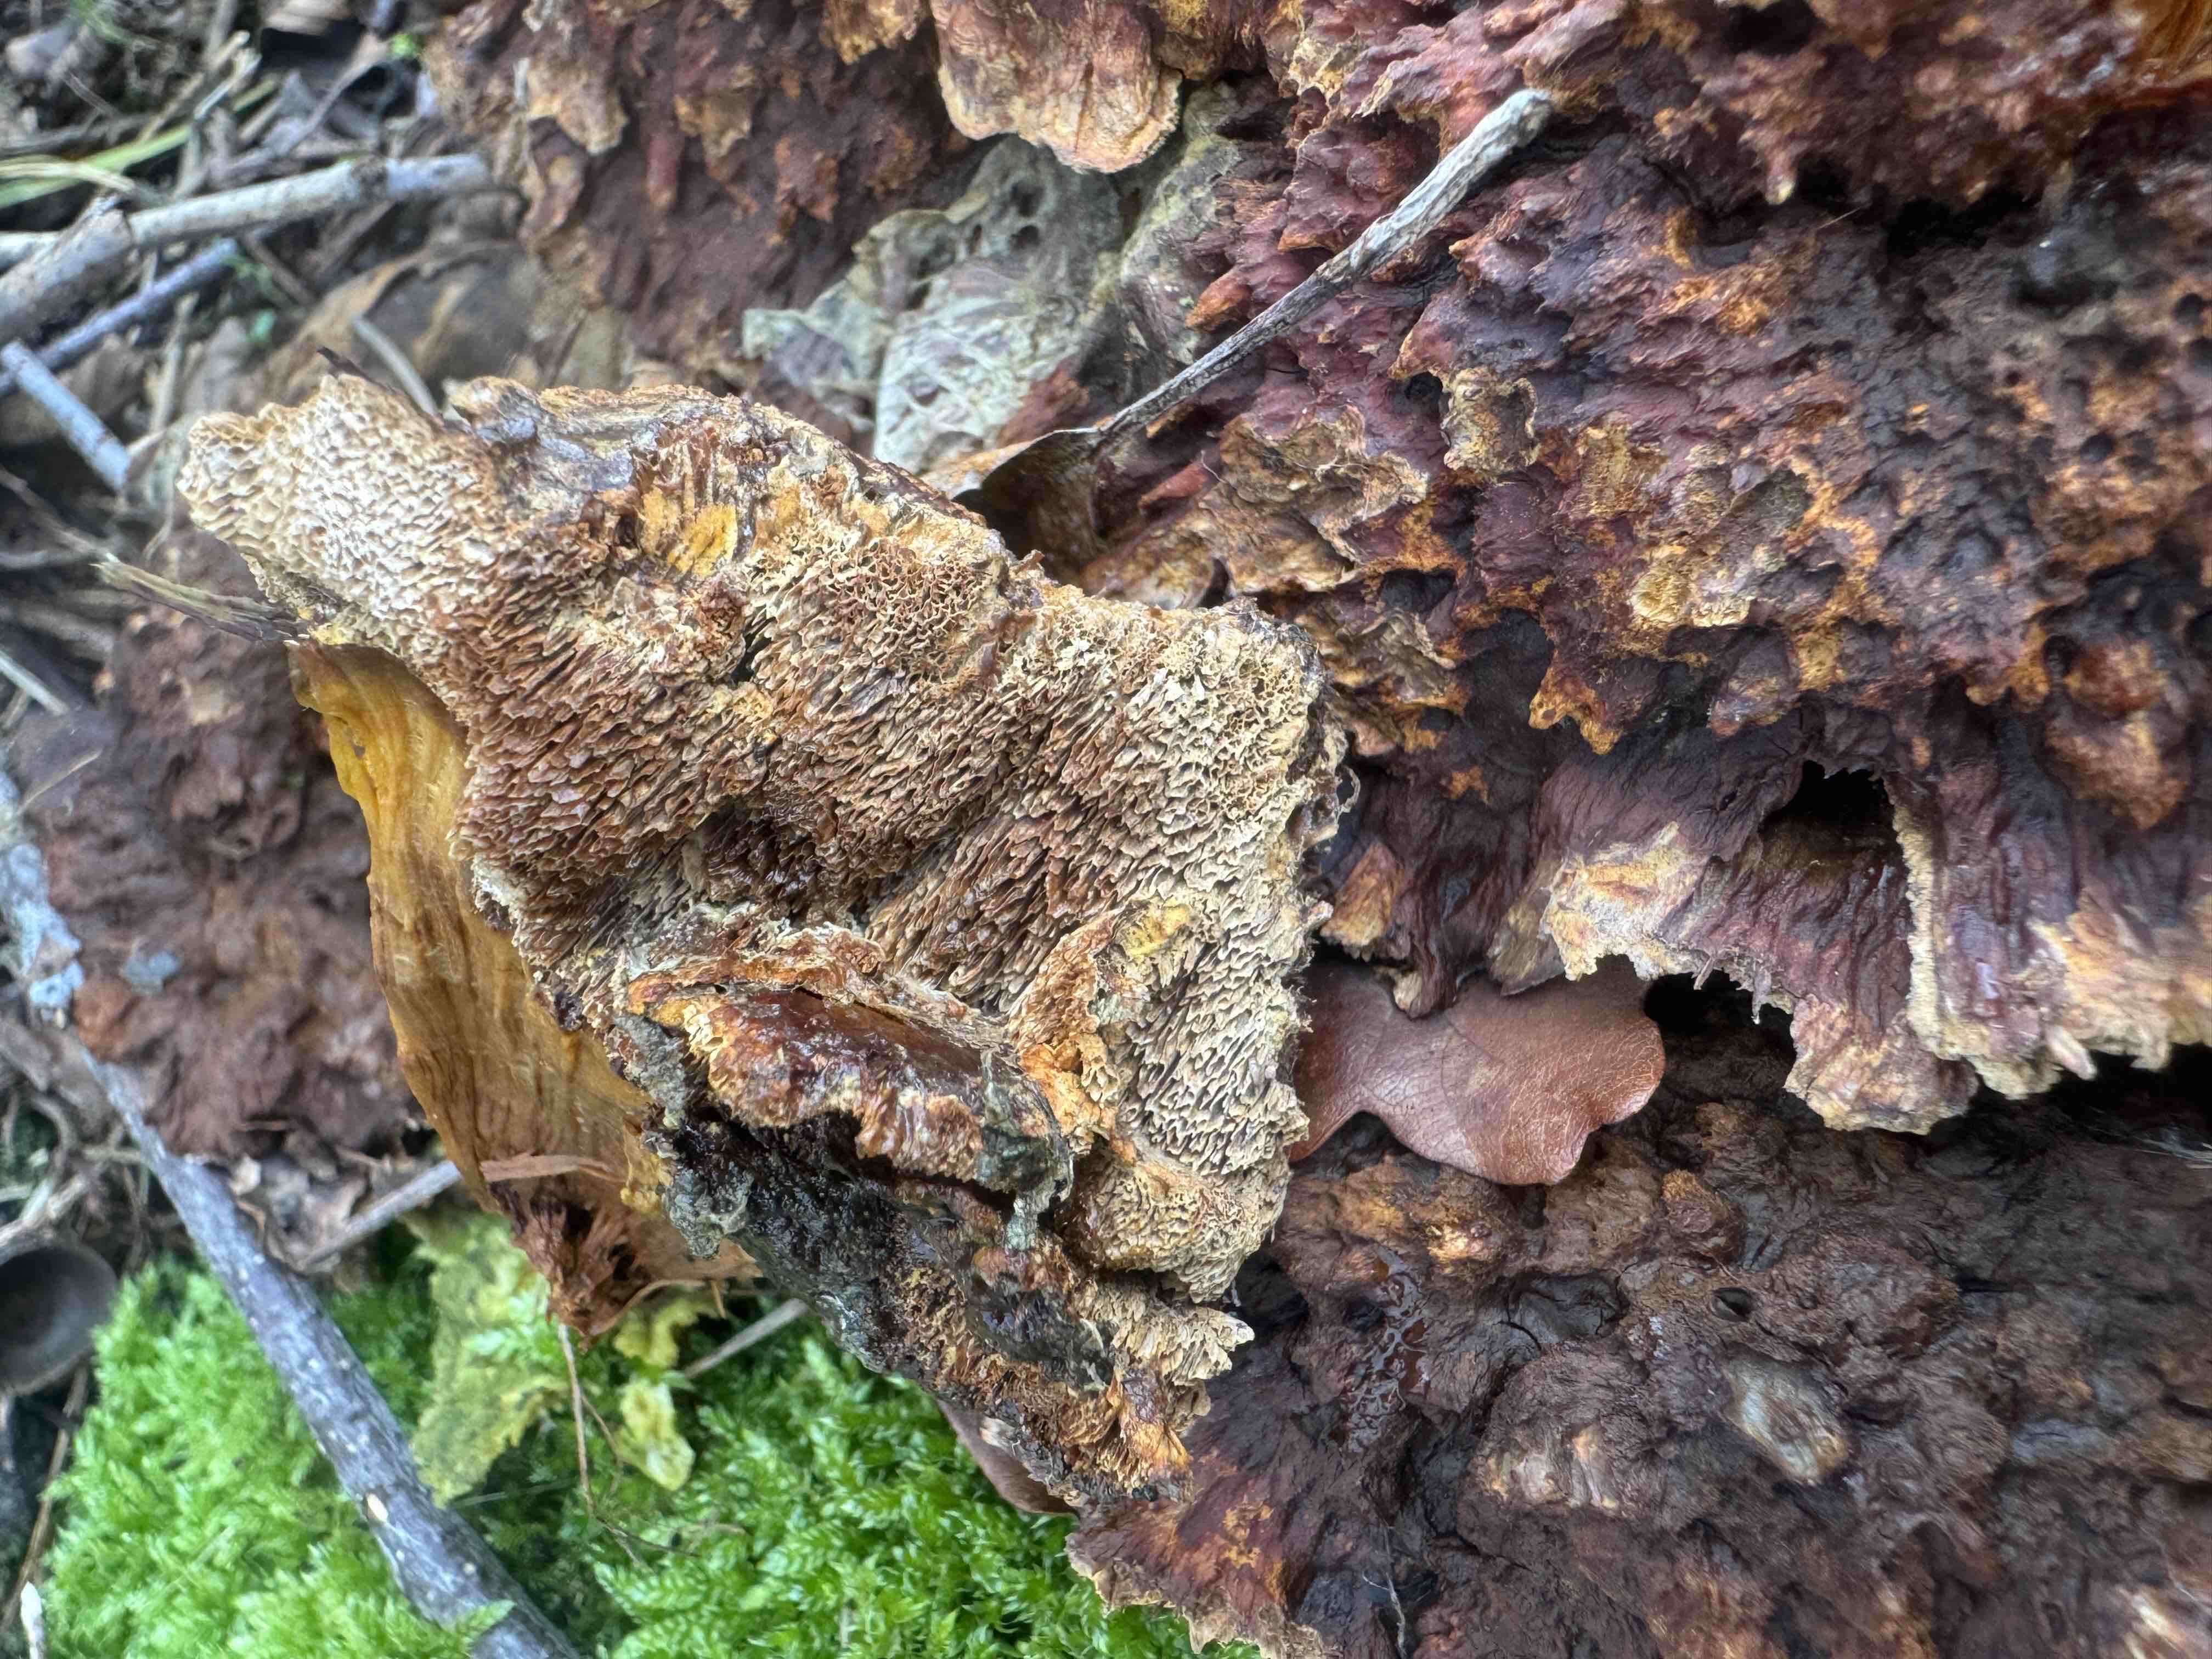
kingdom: Fungi
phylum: Basidiomycota
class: Agaricomycetes
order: Hymenochaetales
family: Hymenochaetaceae
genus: Xanthoporia
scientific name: Xanthoporia radiata
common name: elle-spejlporesvamp
